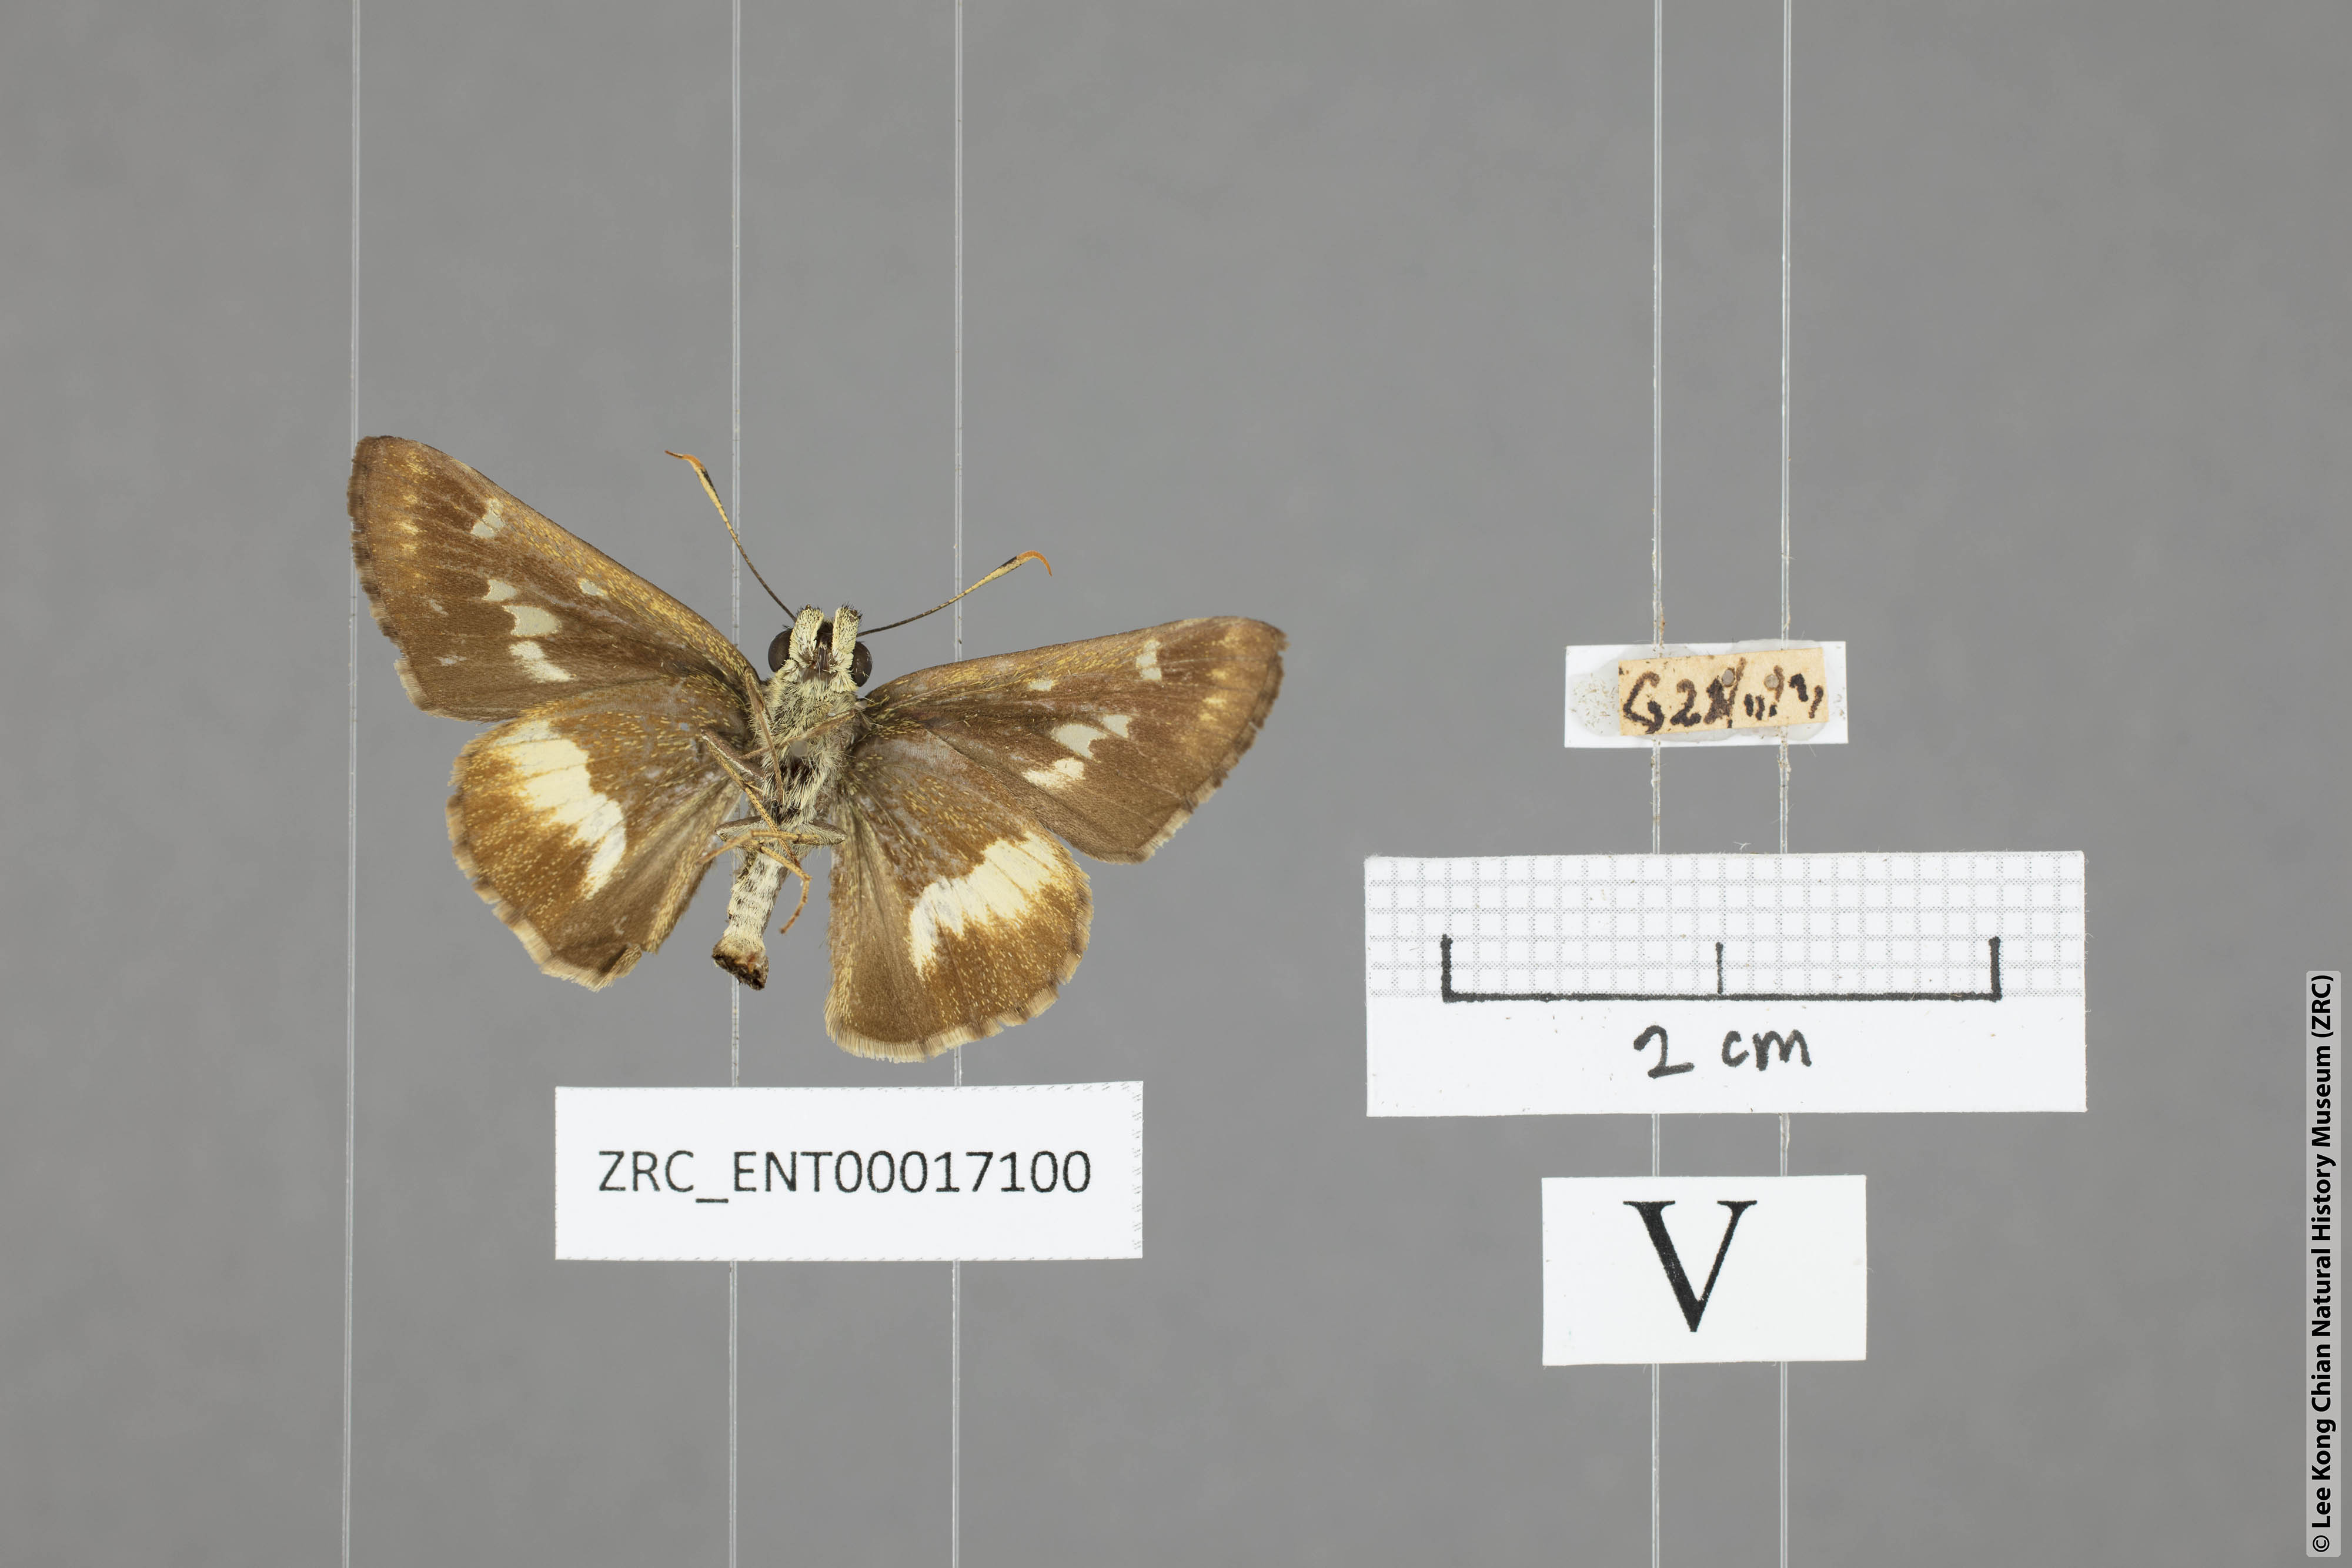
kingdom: Animalia
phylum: Arthropoda
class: Insecta
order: Lepidoptera
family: Hesperiidae
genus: Halpe
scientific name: Halpe zema
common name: Dark banded ace
